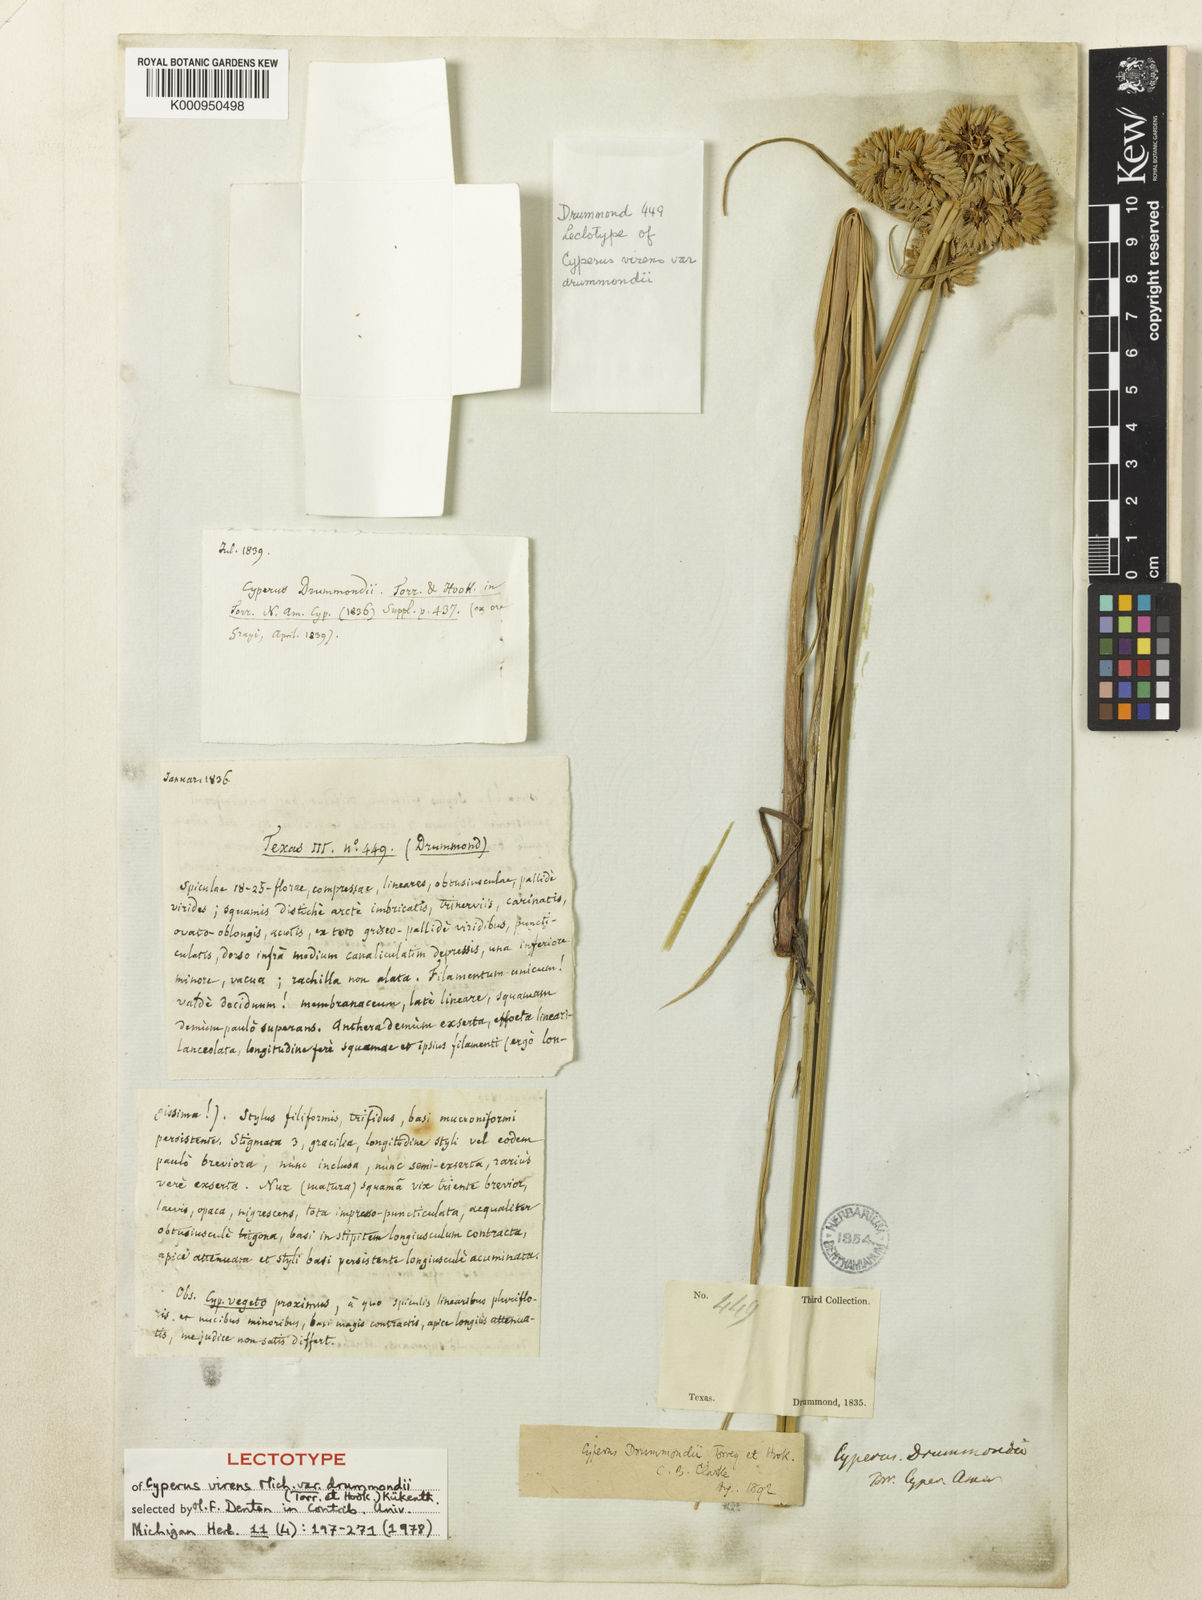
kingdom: Plantae
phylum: Tracheophyta
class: Liliopsida
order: Poales
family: Cyperaceae
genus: Cyperus
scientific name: Cyperus virens
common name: Green flatsedge
